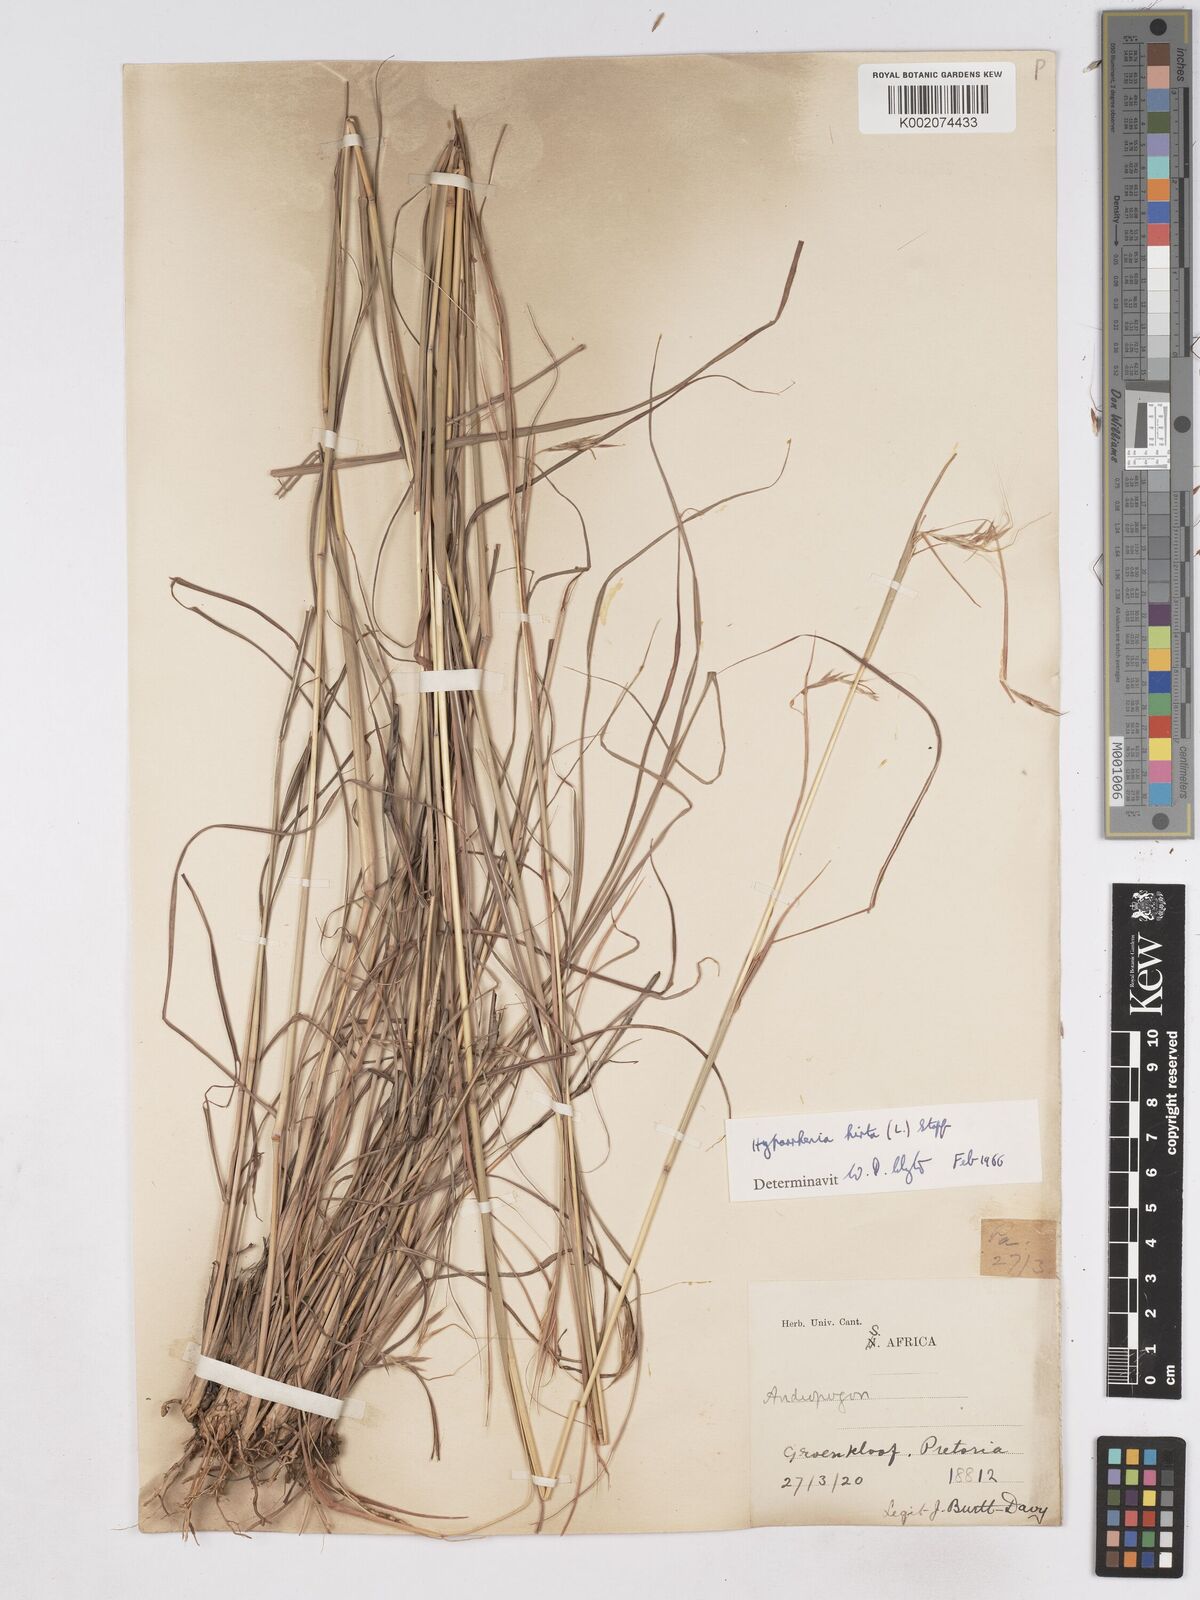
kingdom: Plantae
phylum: Tracheophyta
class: Liliopsida
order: Poales
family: Poaceae
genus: Hyparrhenia
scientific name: Hyparrhenia hirta
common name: Thatching grass
